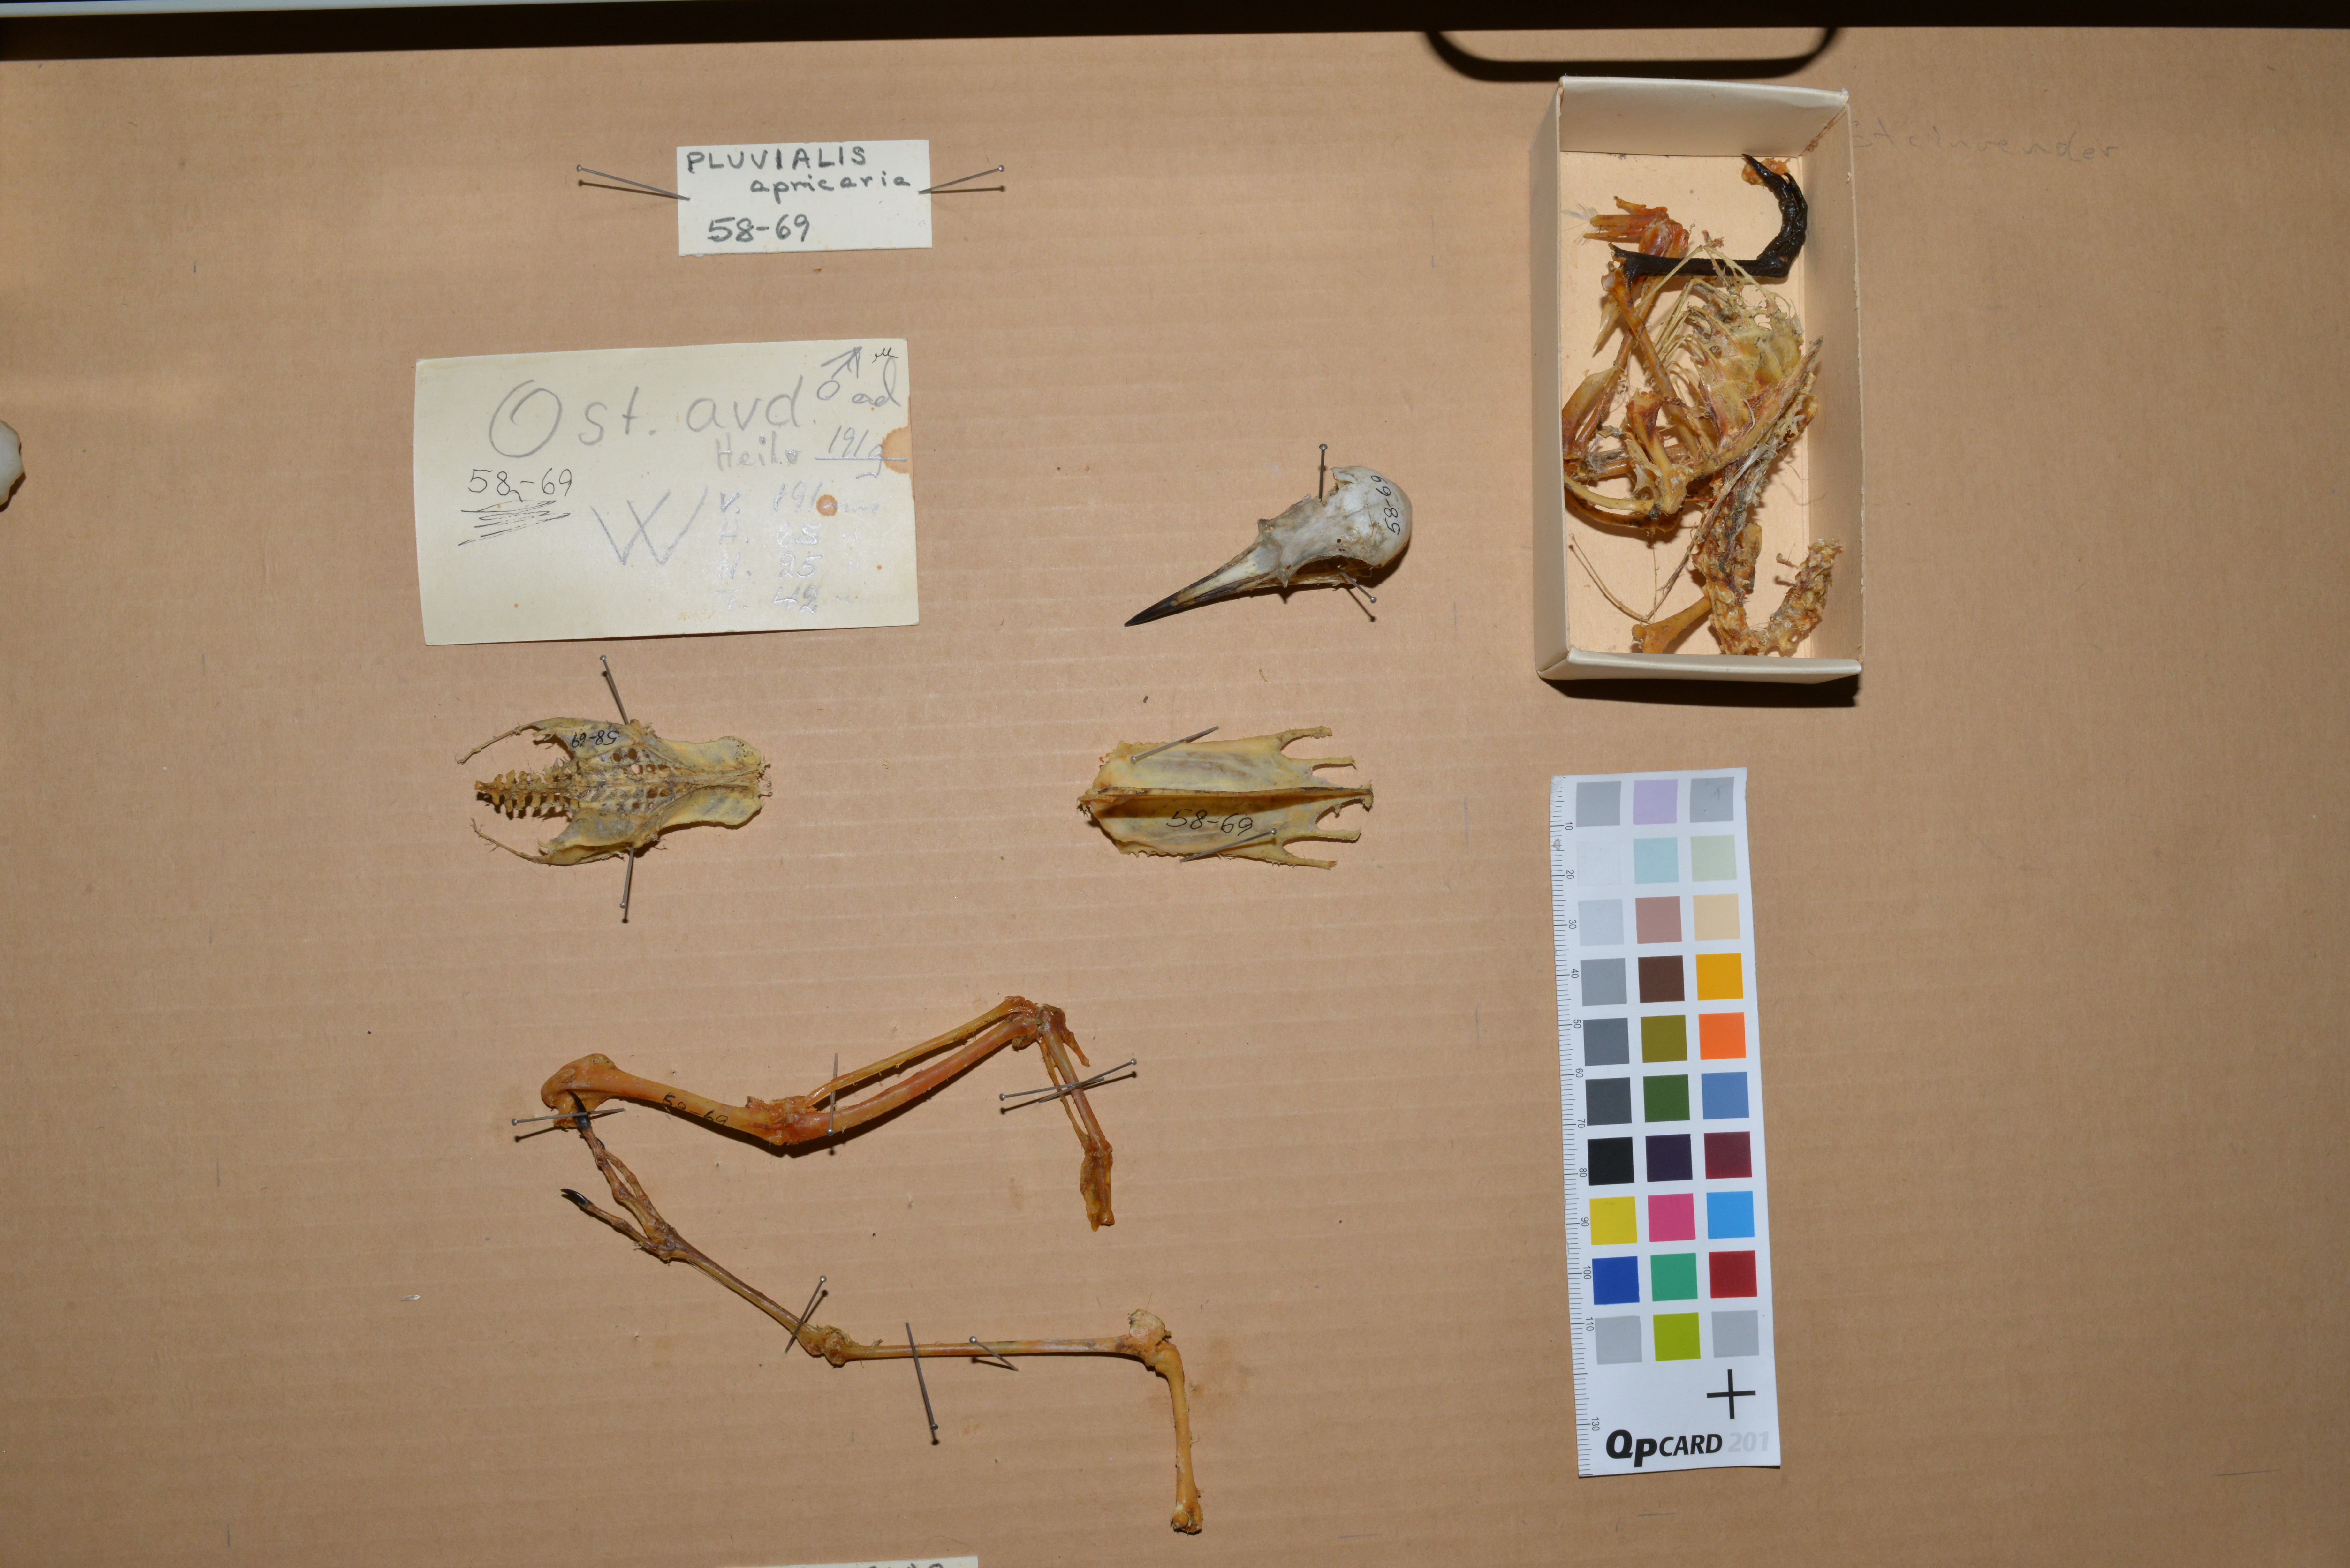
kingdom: Animalia
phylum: Chordata
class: Aves
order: Charadriiformes
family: Charadriidae
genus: Pluvialis
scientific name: Pluvialis apricaria
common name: European golden plover
